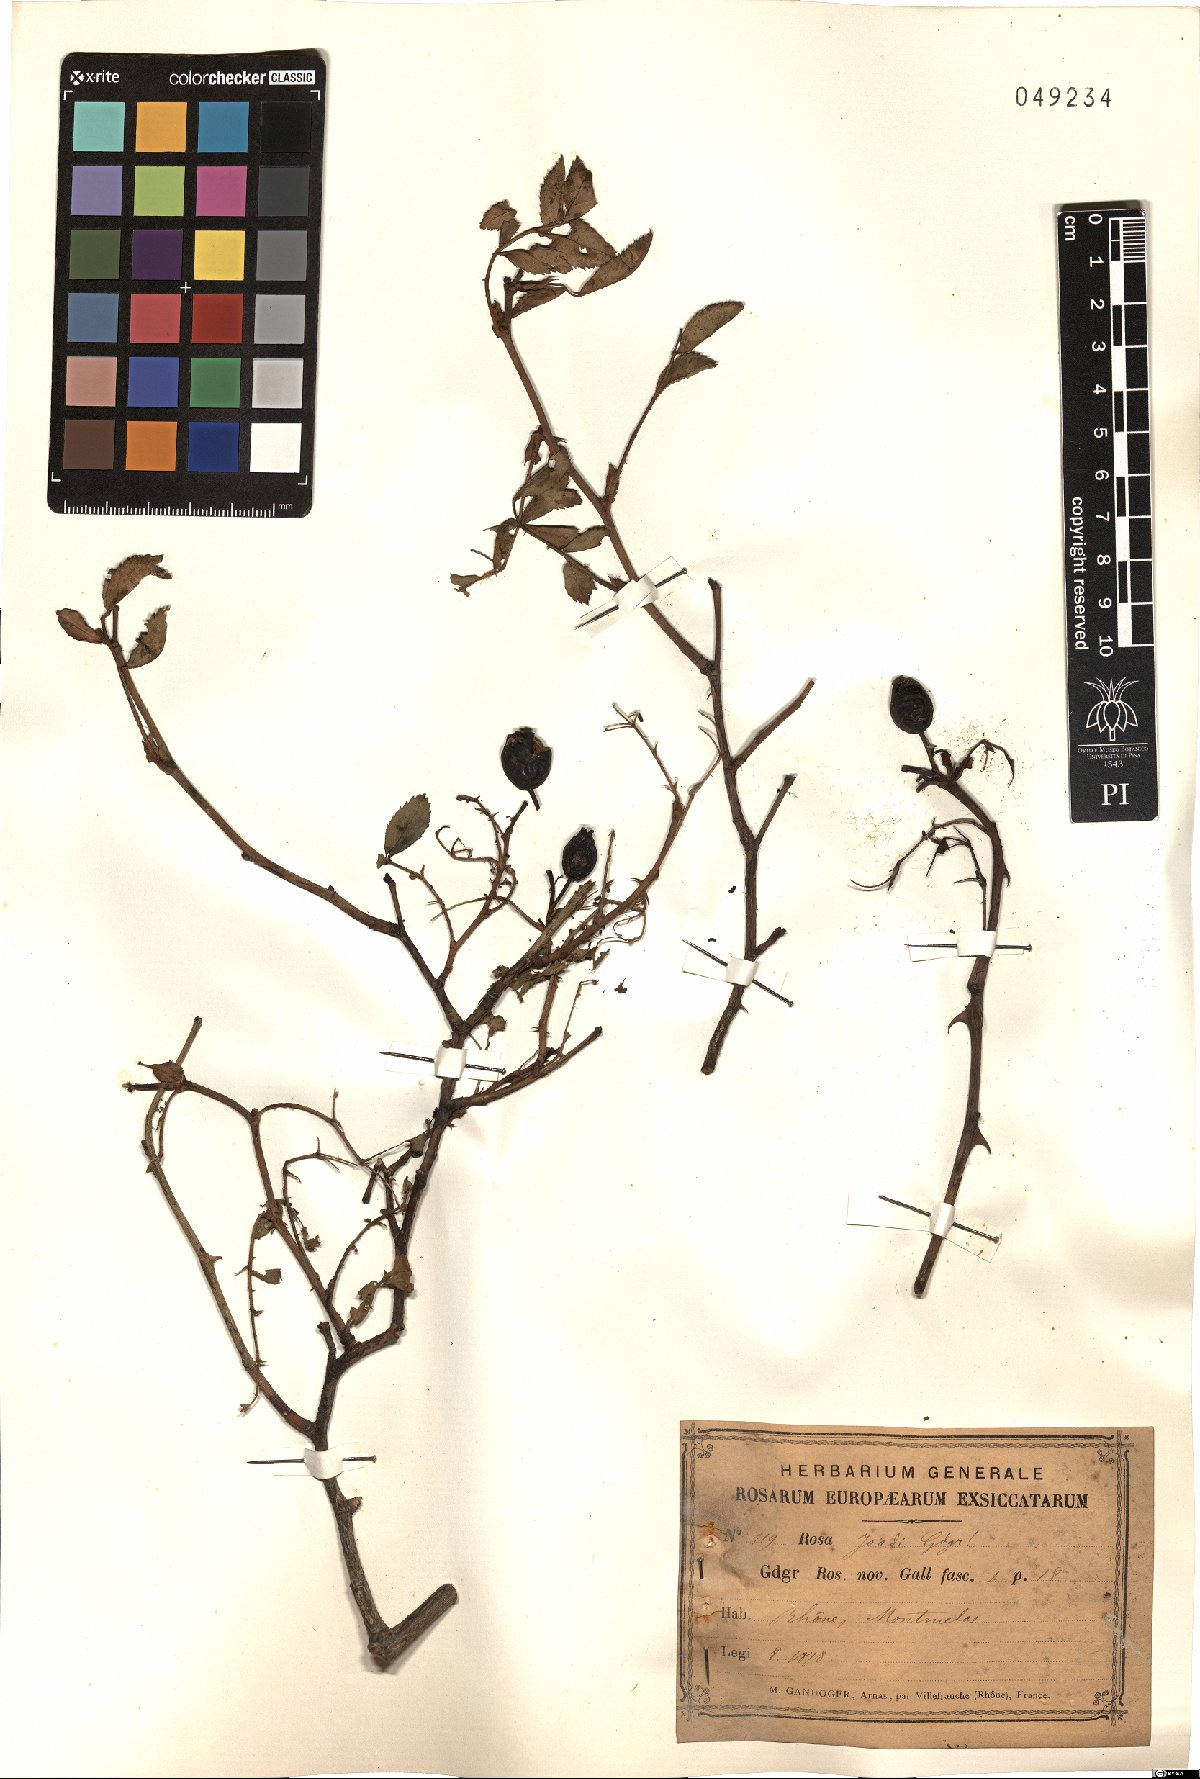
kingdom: Plantae
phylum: Tracheophyta
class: Magnoliopsida
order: Rosales
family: Rosaceae
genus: Rosa
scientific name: Rosa joadi
